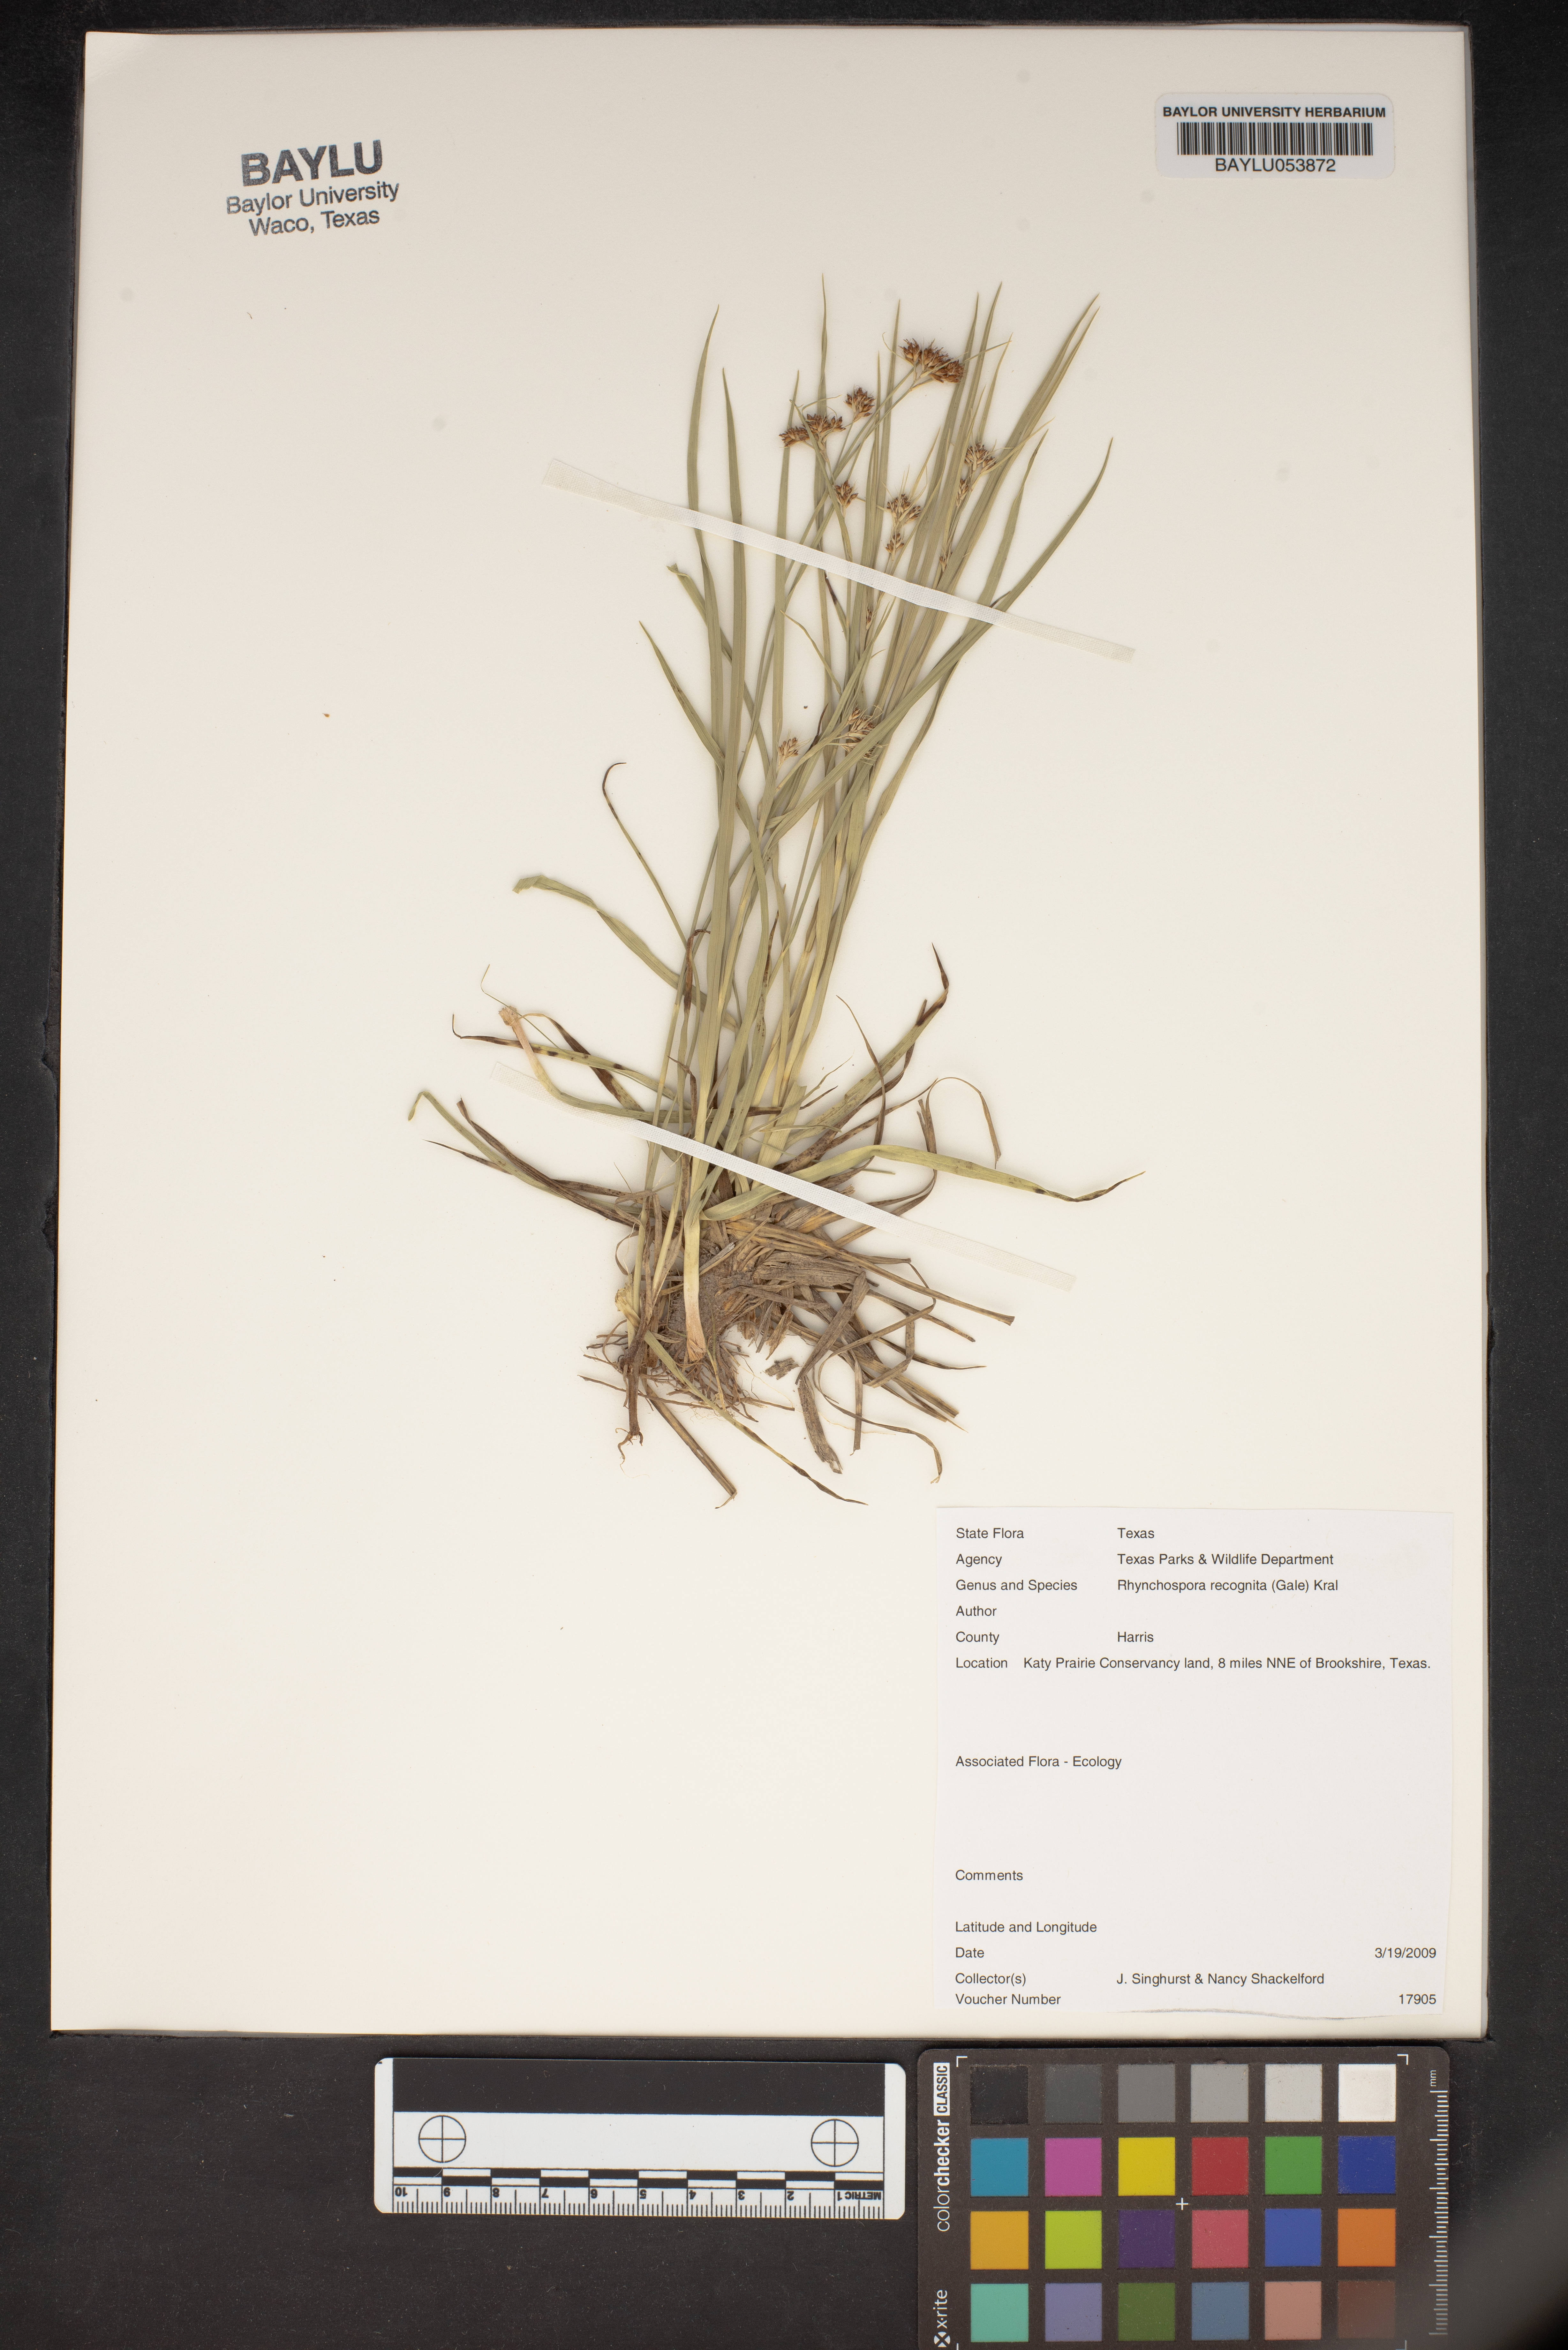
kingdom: Plantae
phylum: Tracheophyta
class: Liliopsida
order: Poales
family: Cyperaceae
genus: Rhynchospora
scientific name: Rhynchospora recognita
